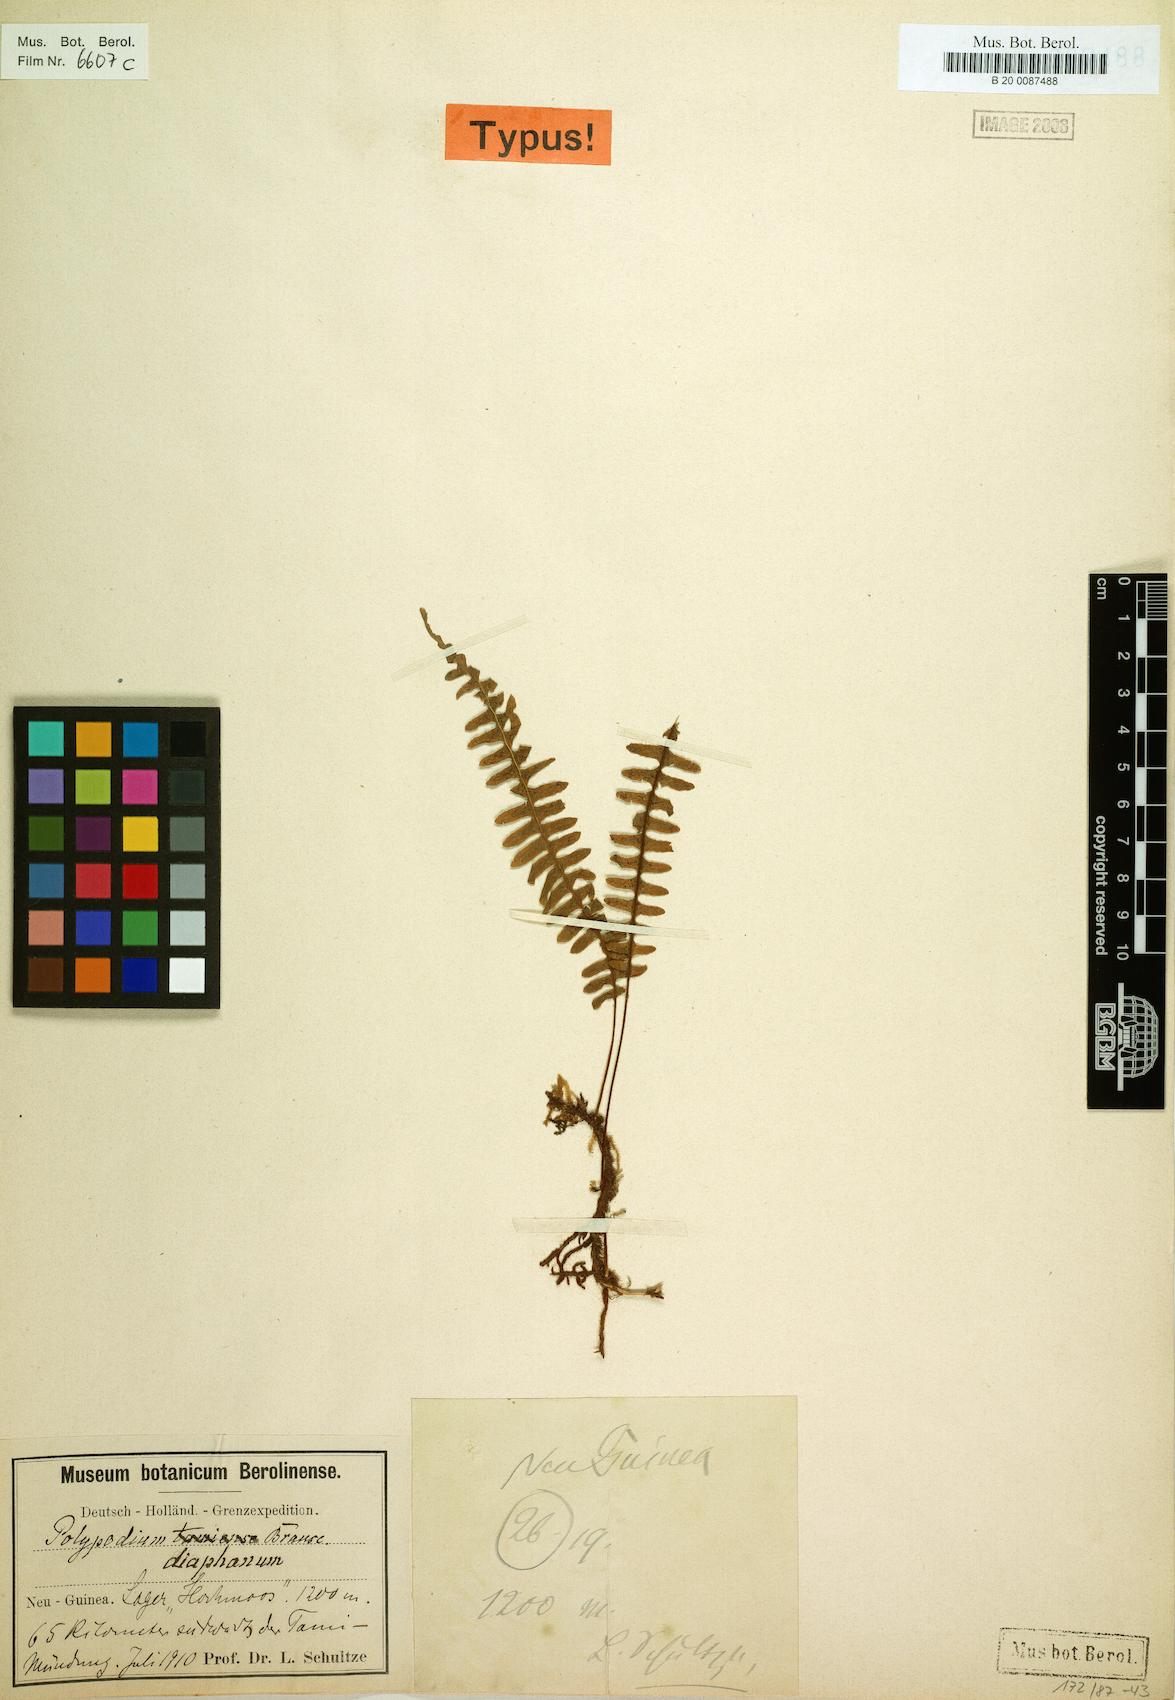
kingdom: Plantae
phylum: Tracheophyta
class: Polypodiopsida
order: Polypodiales
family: Polypodiaceae
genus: Thylacopteris
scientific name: Thylacopteris diaphana
